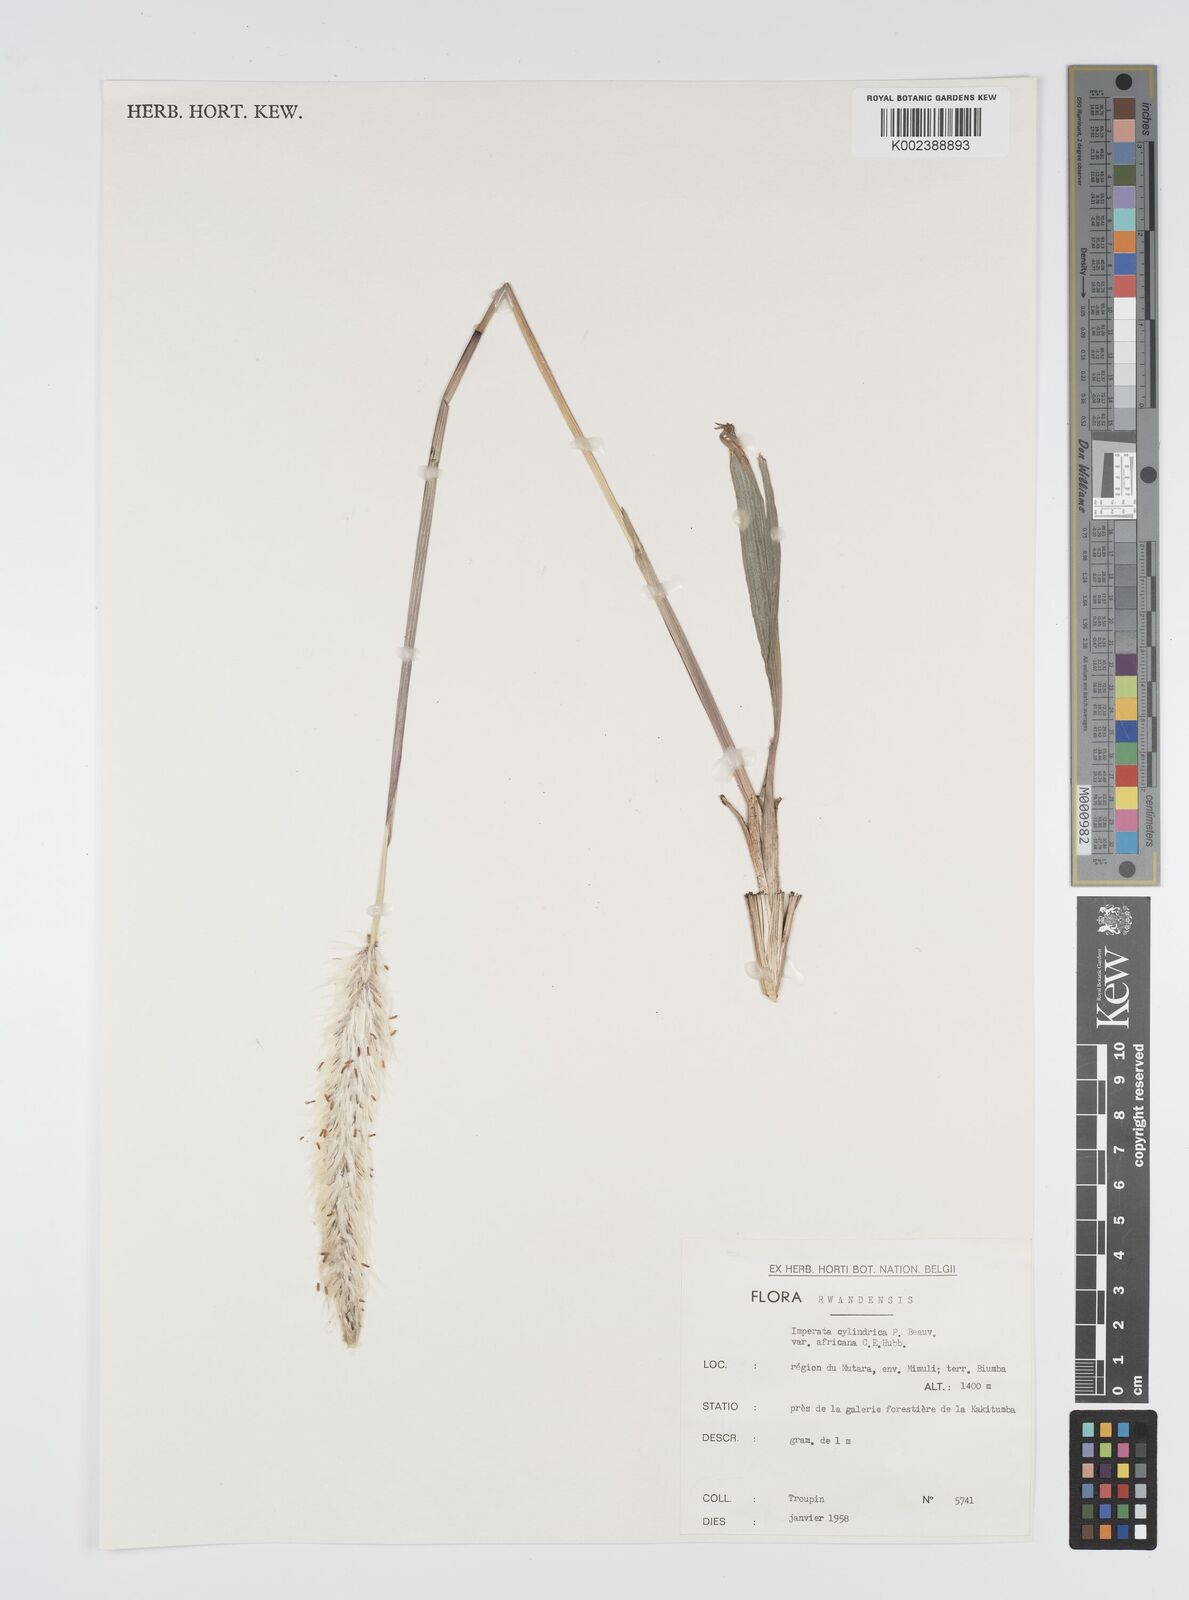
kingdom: Plantae
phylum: Tracheophyta
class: Liliopsida
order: Poales
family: Poaceae
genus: Imperata
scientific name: Imperata cylindrica
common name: Cogongrass
